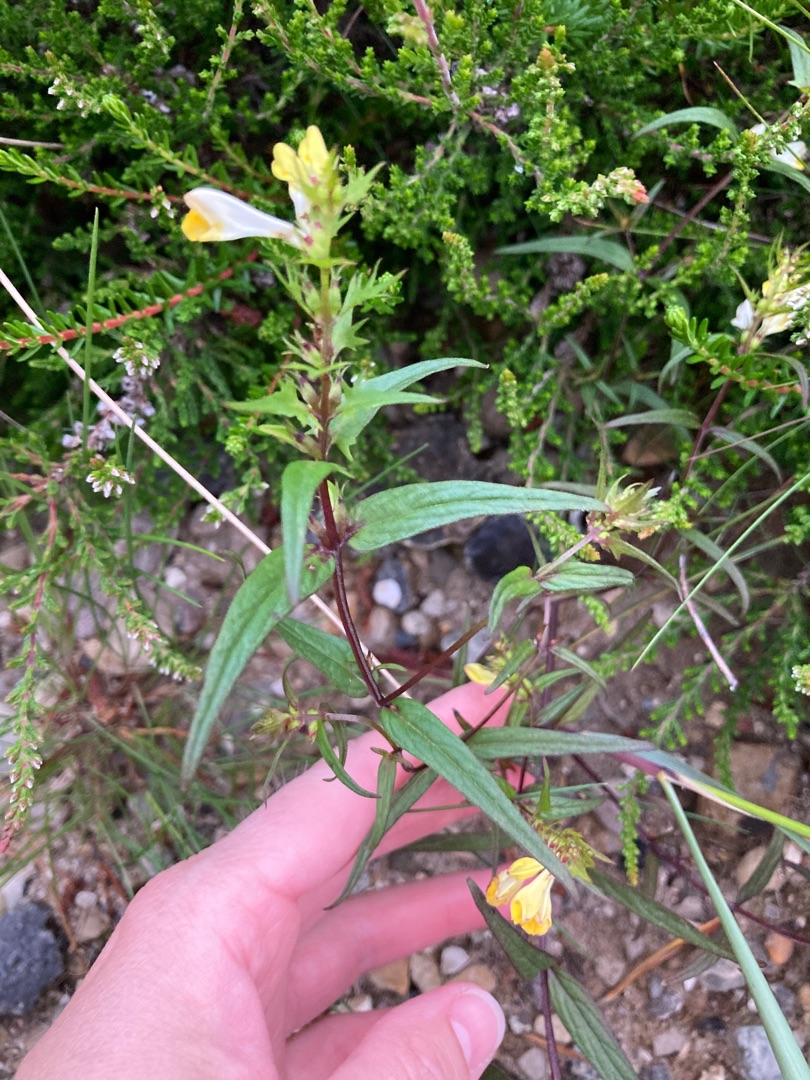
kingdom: Plantae
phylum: Tracheophyta
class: Magnoliopsida
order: Lamiales
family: Orobanchaceae
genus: Melampyrum
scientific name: Melampyrum pratense
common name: Almindelig kohvede
